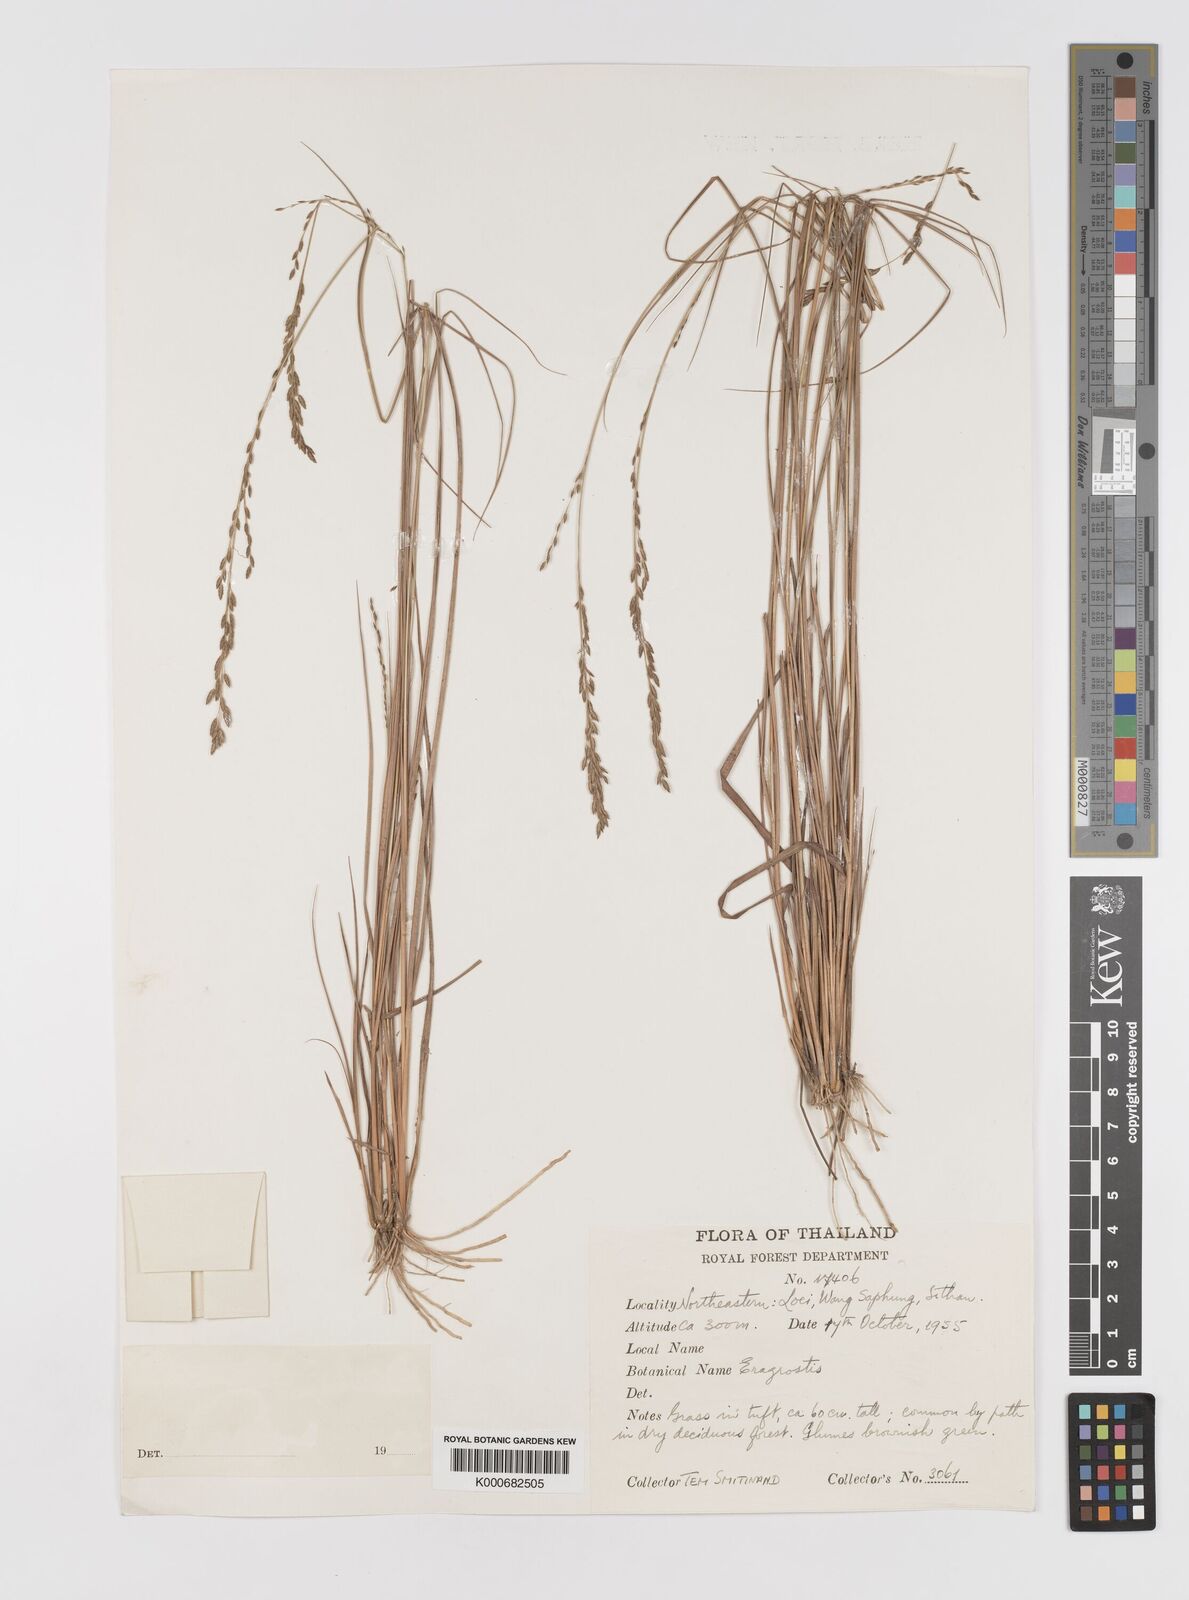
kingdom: Plantae
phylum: Tracheophyta
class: Liliopsida
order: Poales
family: Poaceae
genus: Eragrostis
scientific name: Eragrostis brownii
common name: Lovegrass
